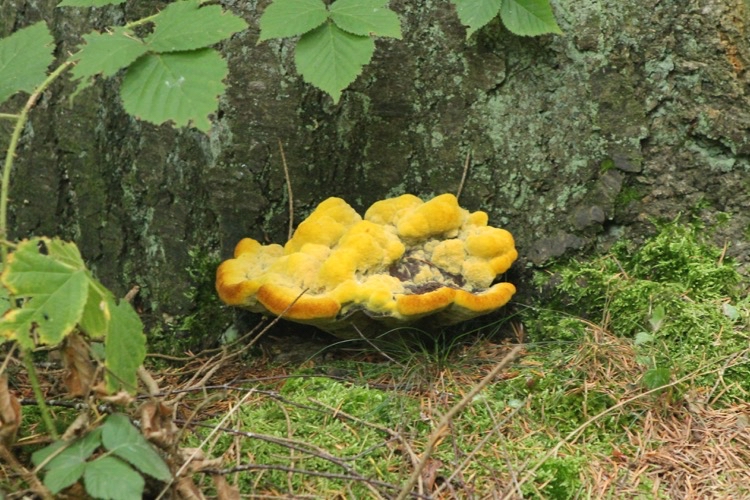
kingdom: Fungi
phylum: Basidiomycota
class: Agaricomycetes
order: Polyporales
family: Laetiporaceae
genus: Phaeolus
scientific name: Phaeolus schweinitzii
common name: brunporesvamp
